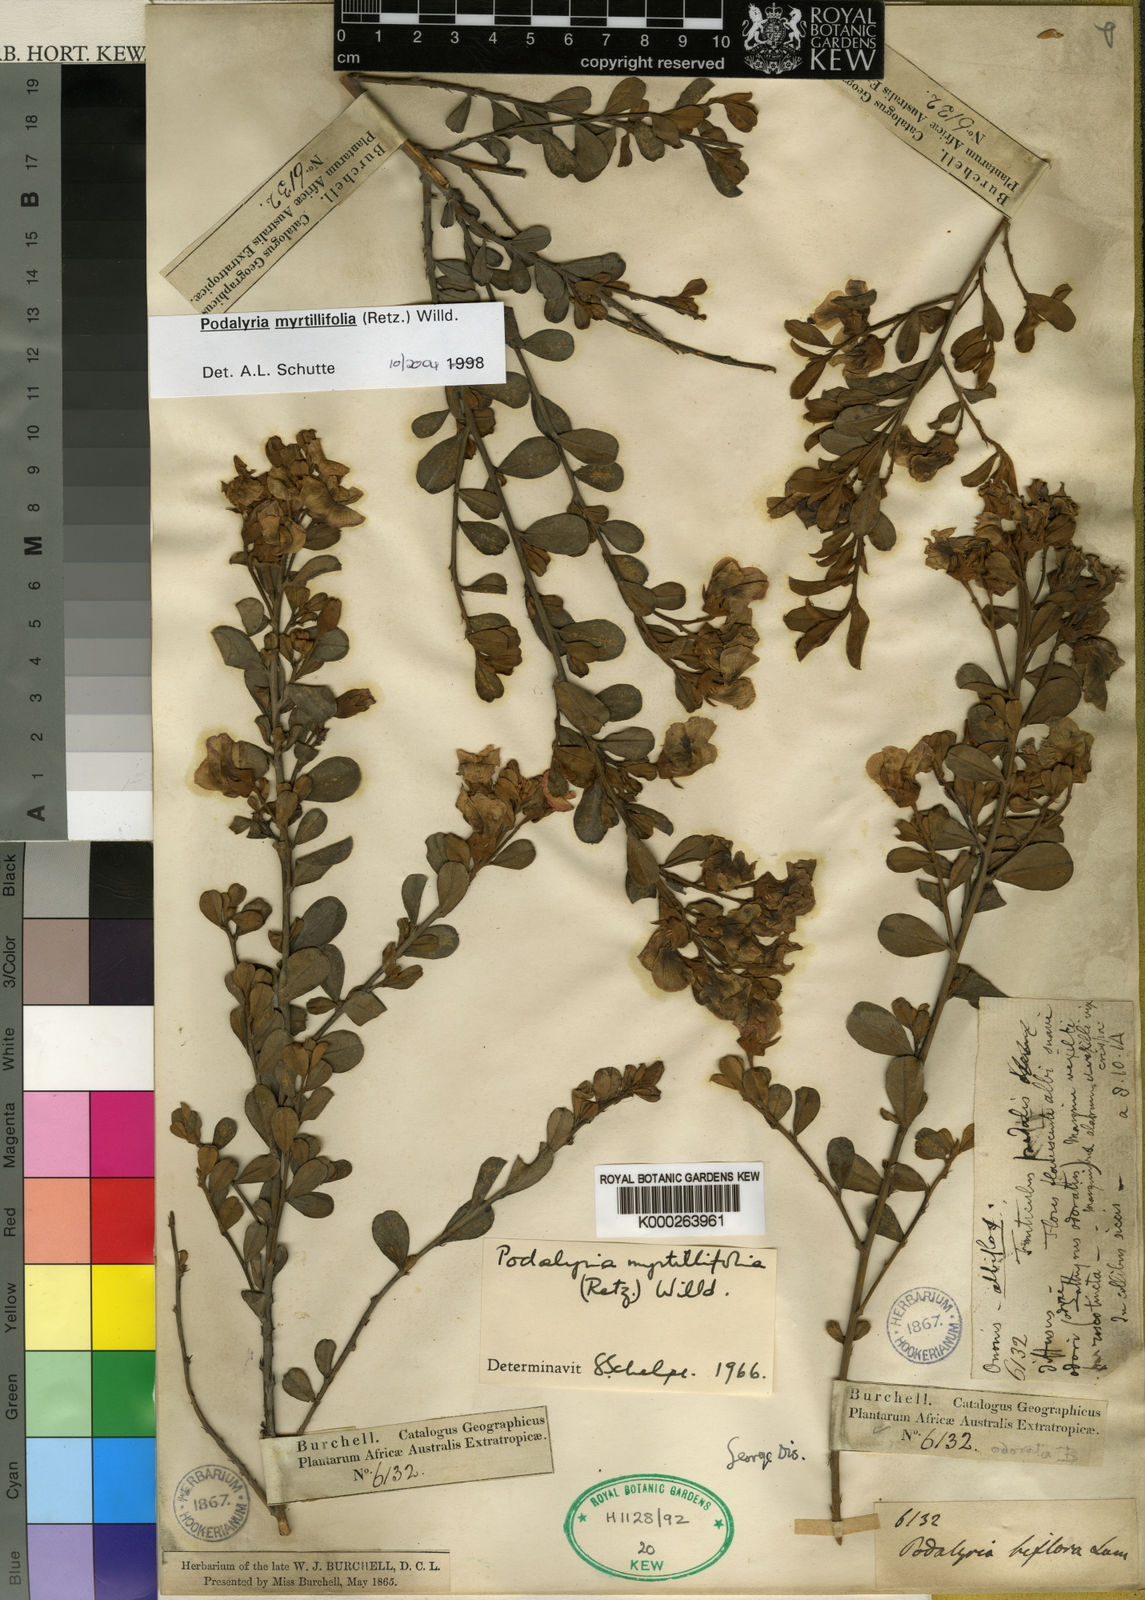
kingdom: Plantae
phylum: Tracheophyta
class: Magnoliopsida
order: Fabales
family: Fabaceae
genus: Podalyria
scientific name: Podalyria myrtillifolia
